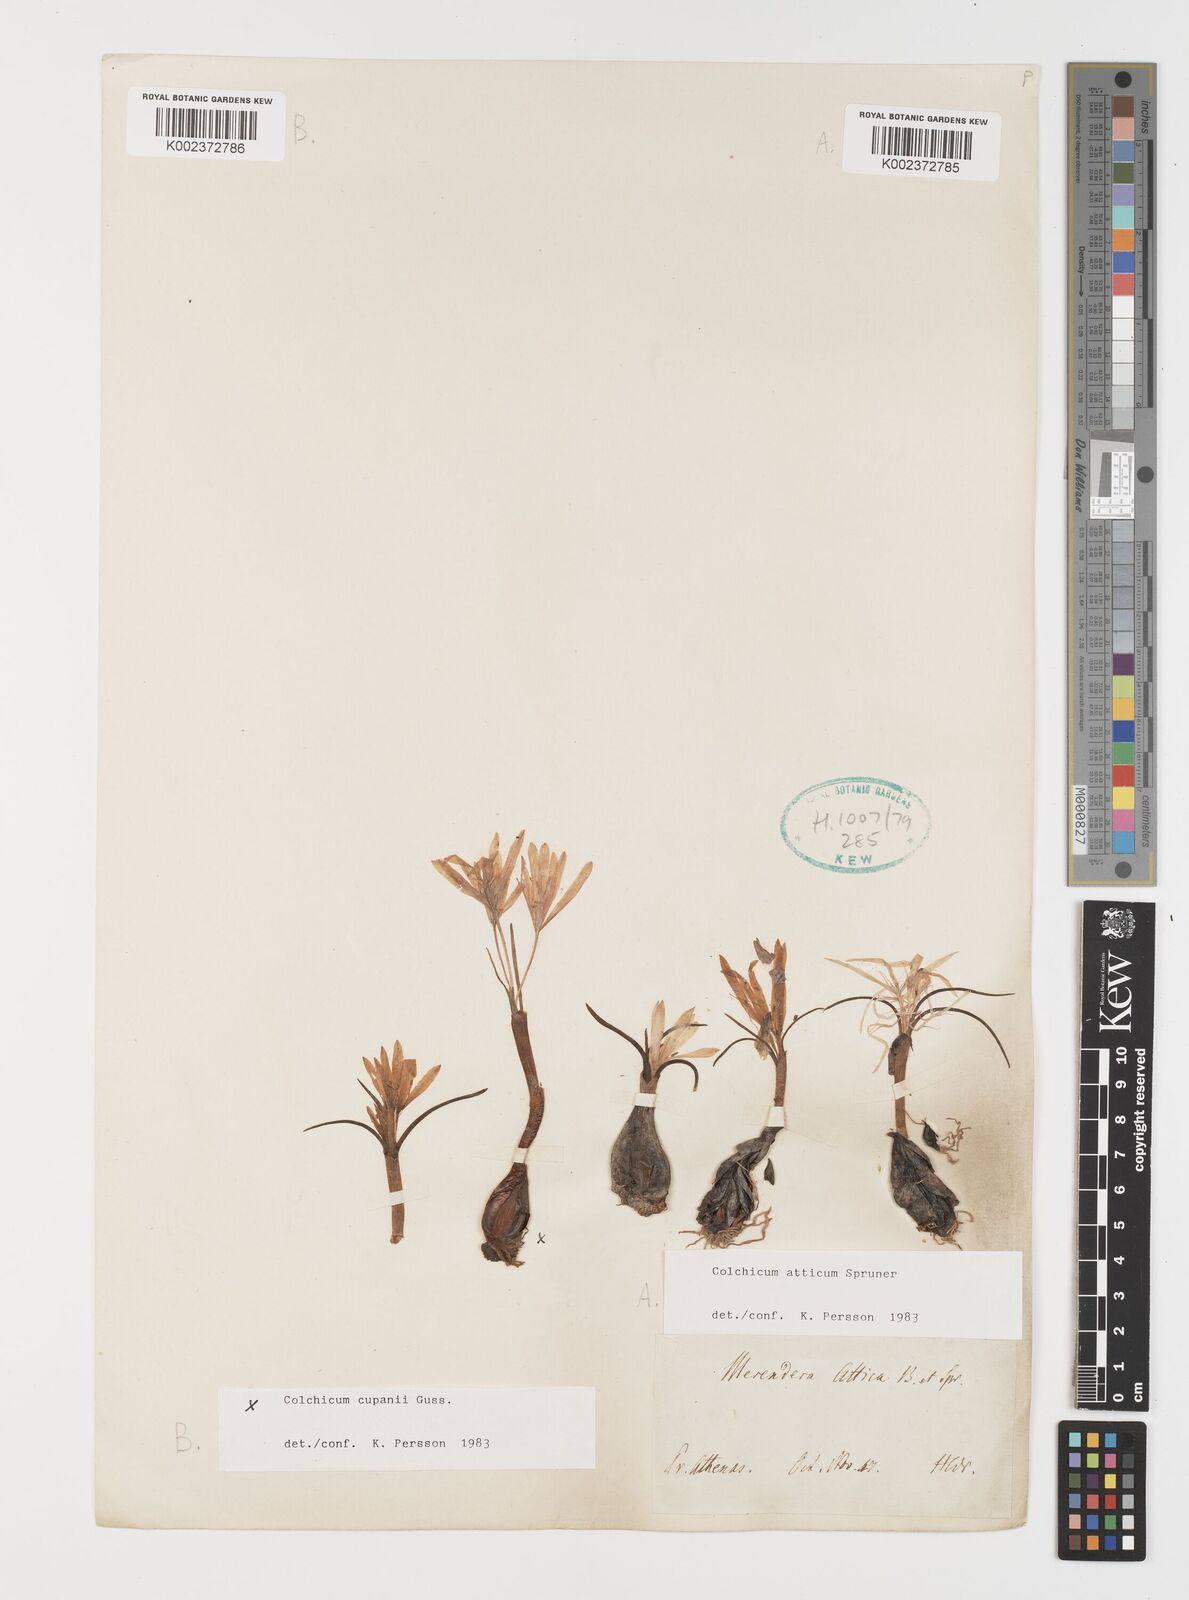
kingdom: Plantae
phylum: Tracheophyta
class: Liliopsida
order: Liliales
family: Colchicaceae
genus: Colchicum
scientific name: Colchicum atticum
